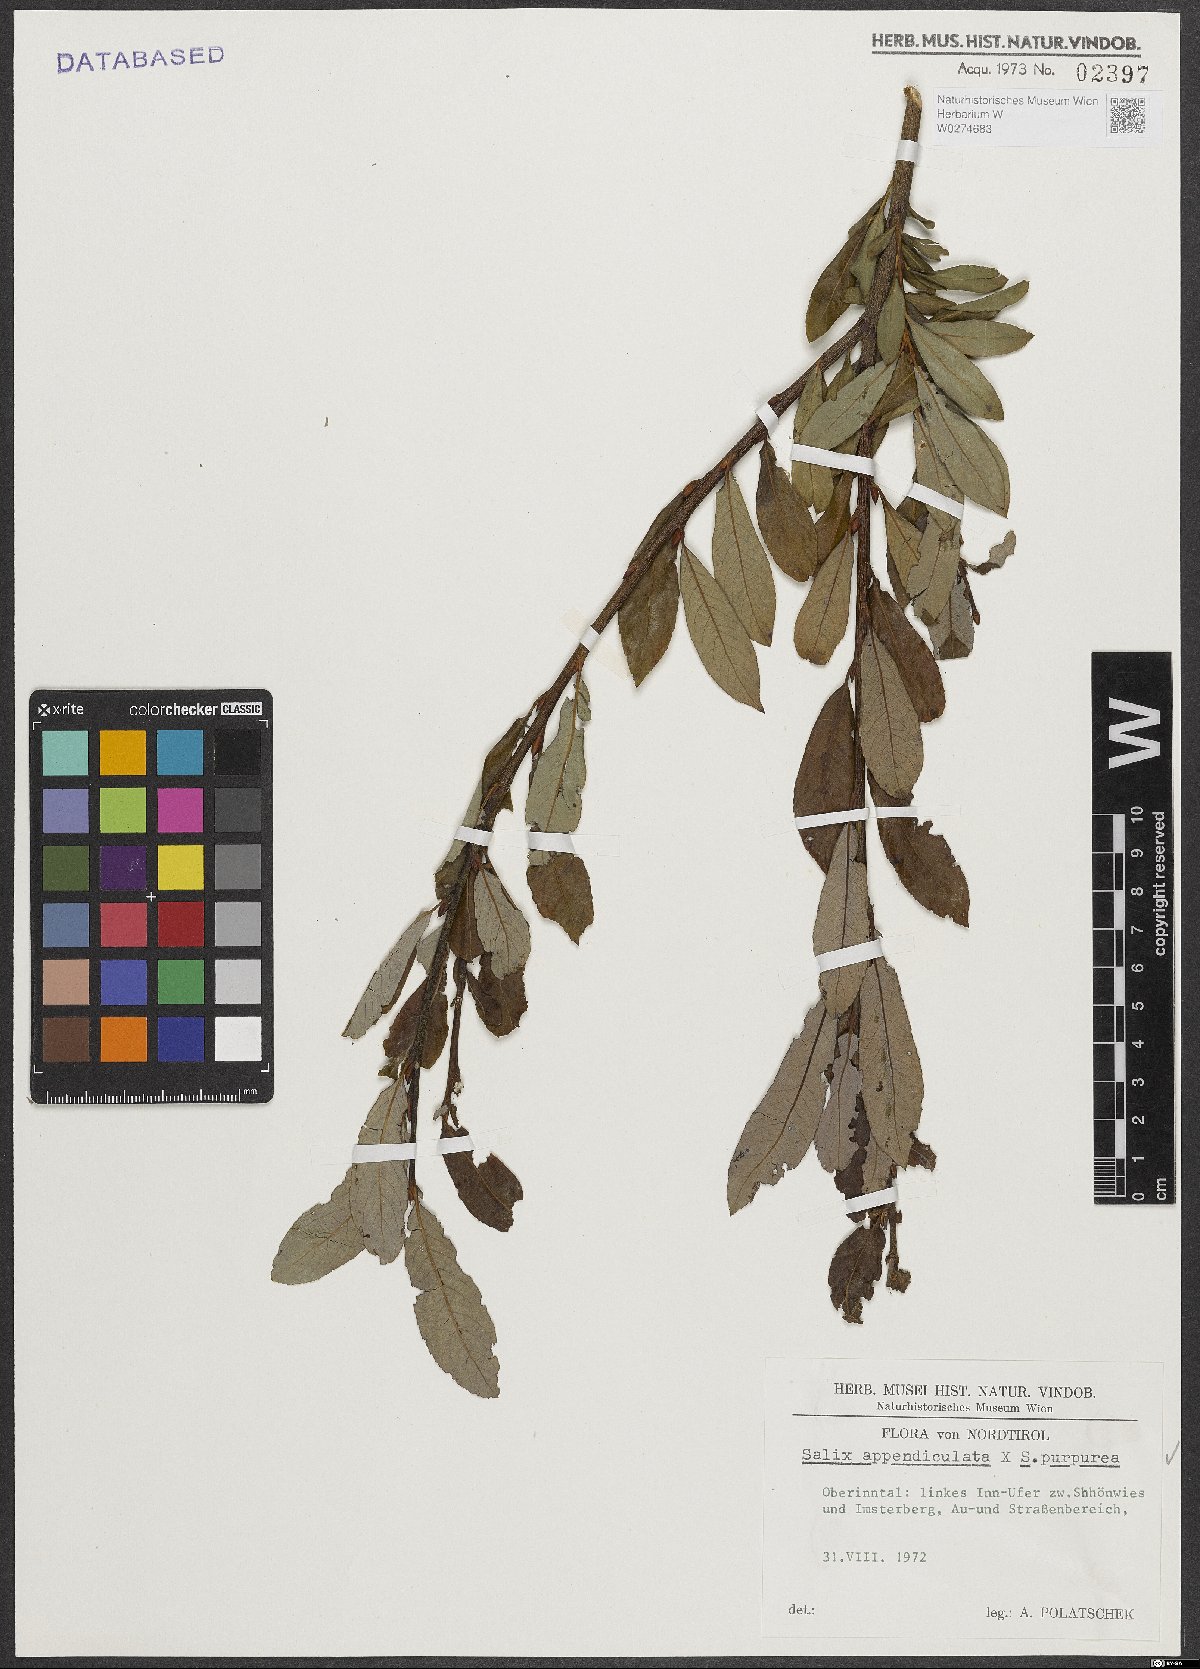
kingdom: Plantae
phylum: Tracheophyta
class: Magnoliopsida
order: Malpighiales
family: Salicaceae
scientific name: Salicaceae
